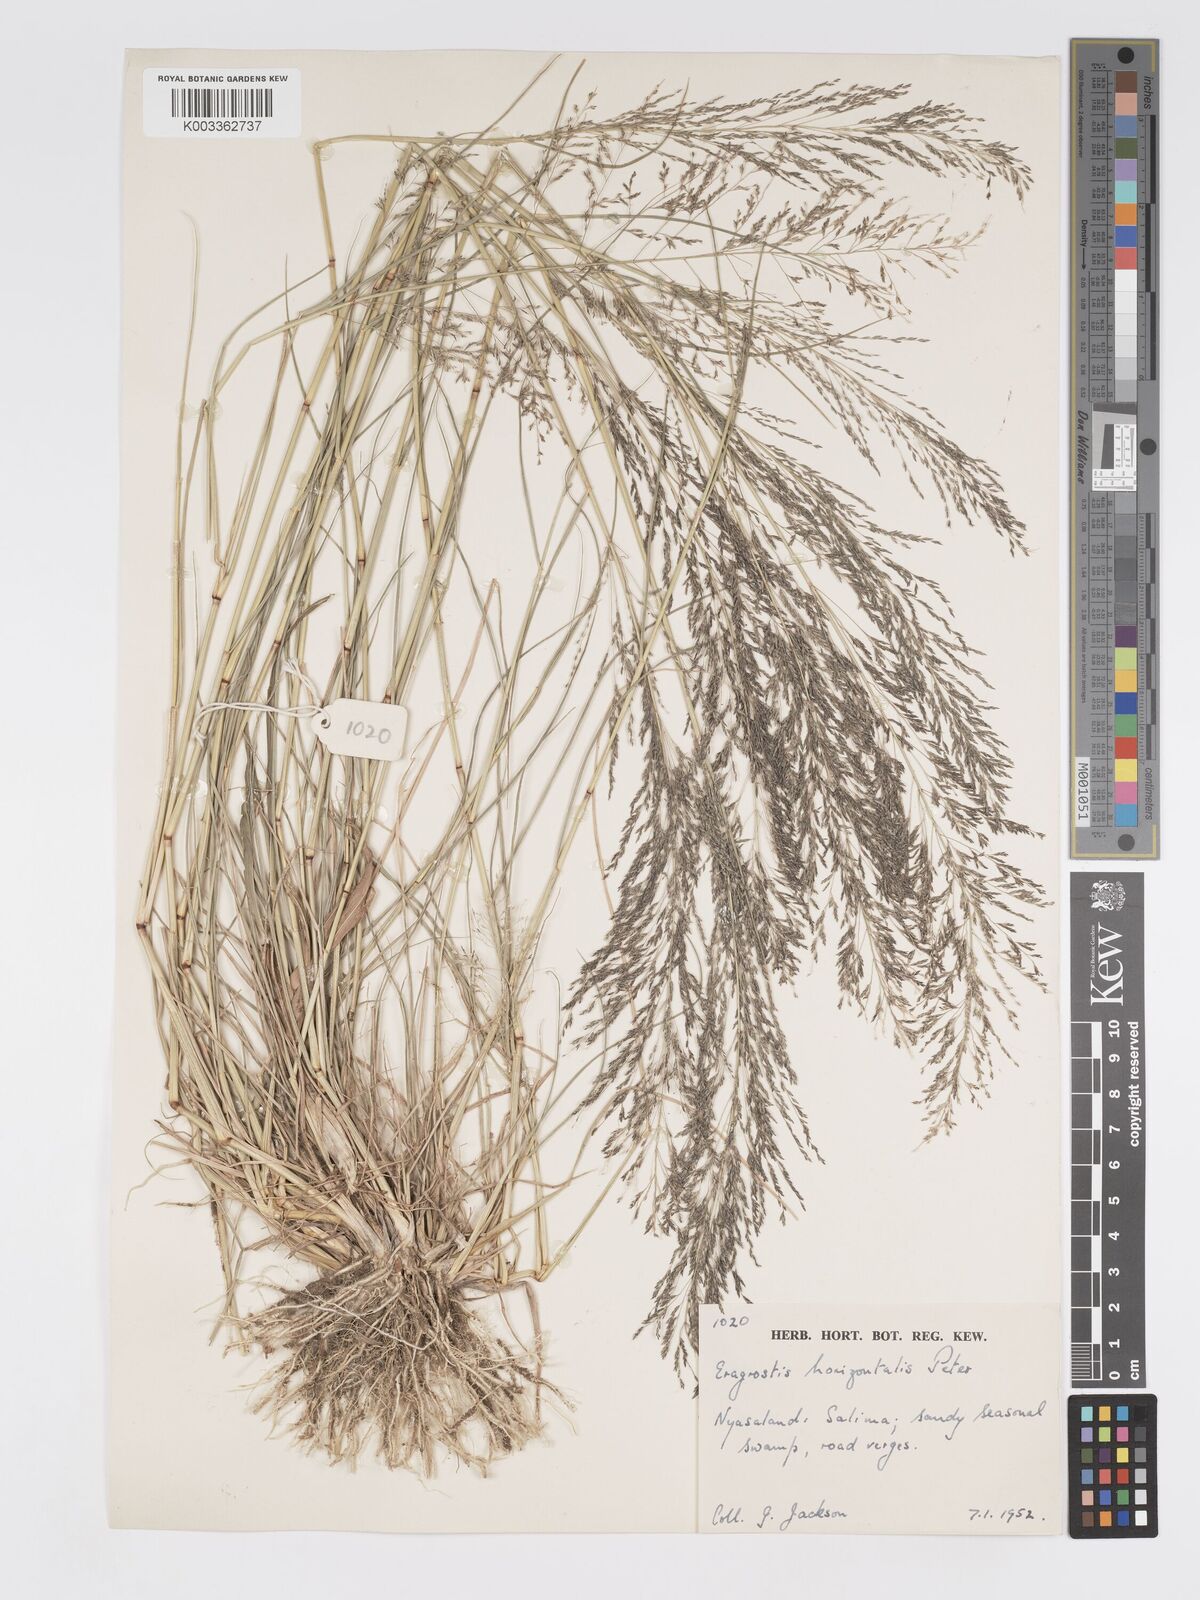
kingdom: Plantae
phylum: Tracheophyta
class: Liliopsida
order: Poales
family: Poaceae
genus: Eragrostis
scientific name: Eragrostis cylindriflora
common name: Cylinderflower lovegrass
